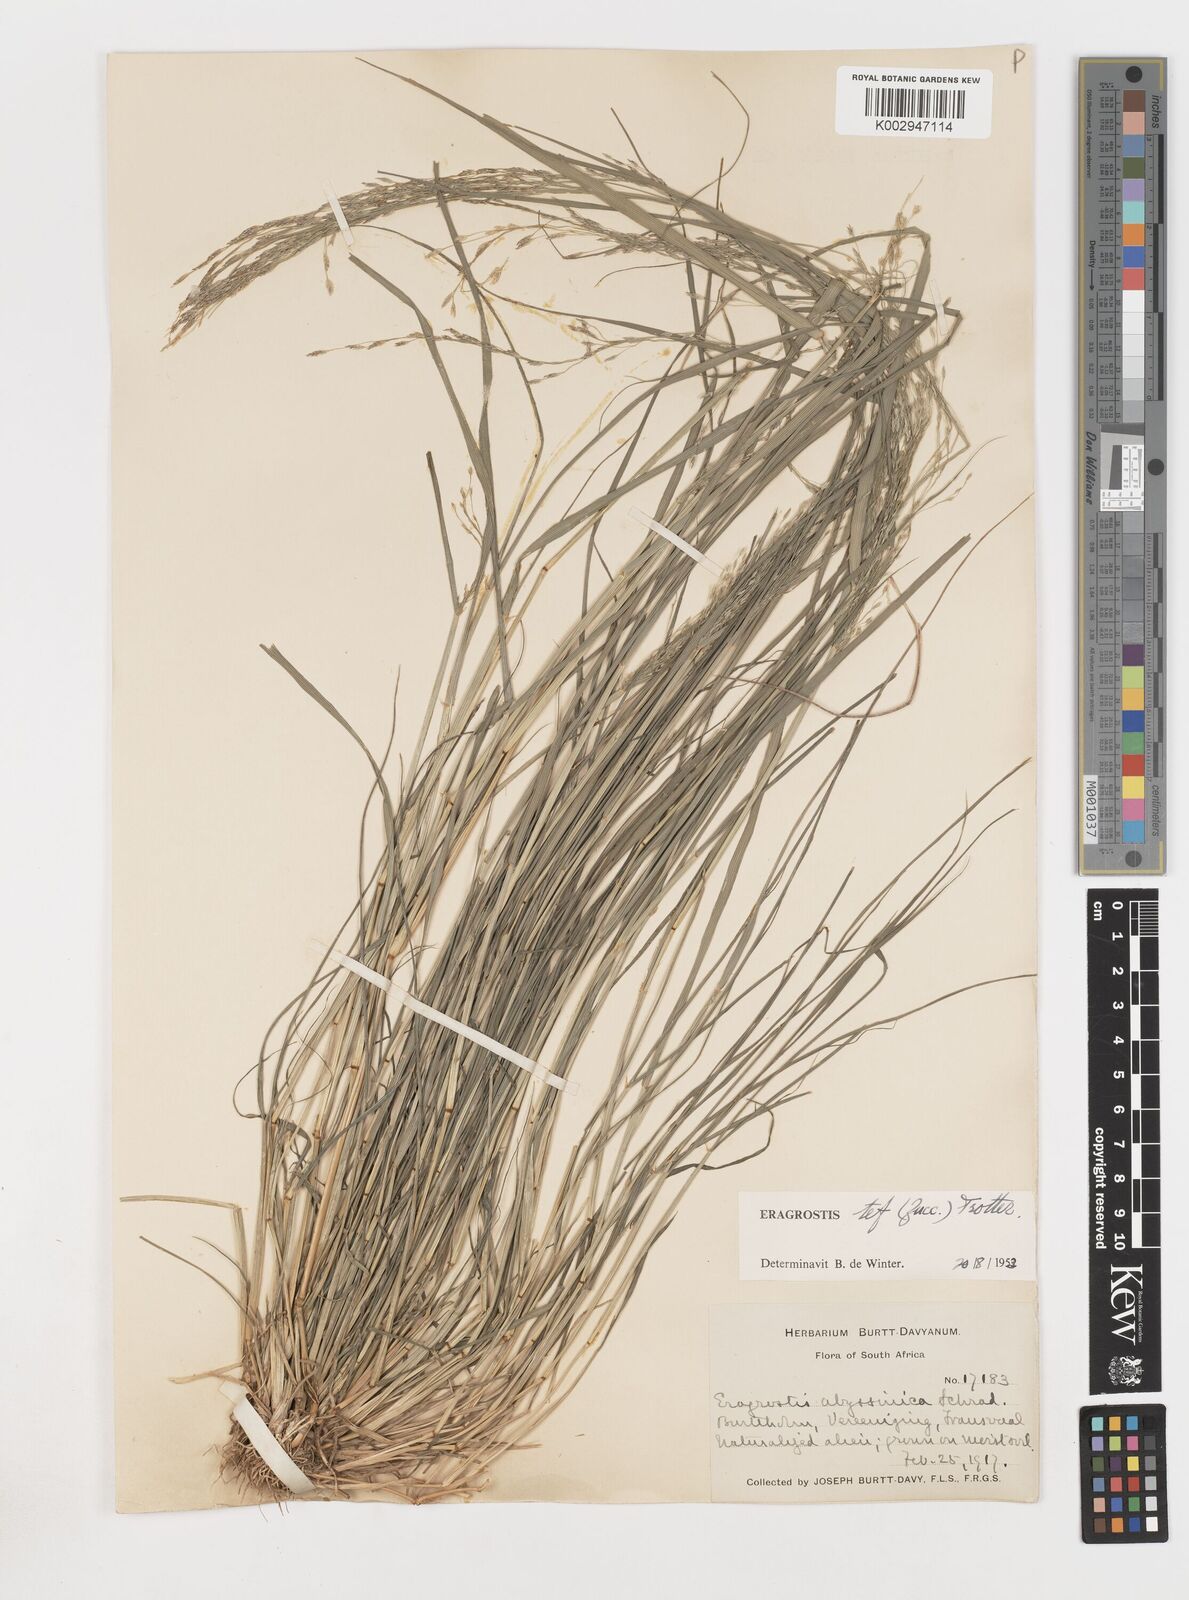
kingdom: Plantae
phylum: Tracheophyta
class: Liliopsida
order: Poales
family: Poaceae
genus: Eragrostis
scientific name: Eragrostis tef
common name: Teff
